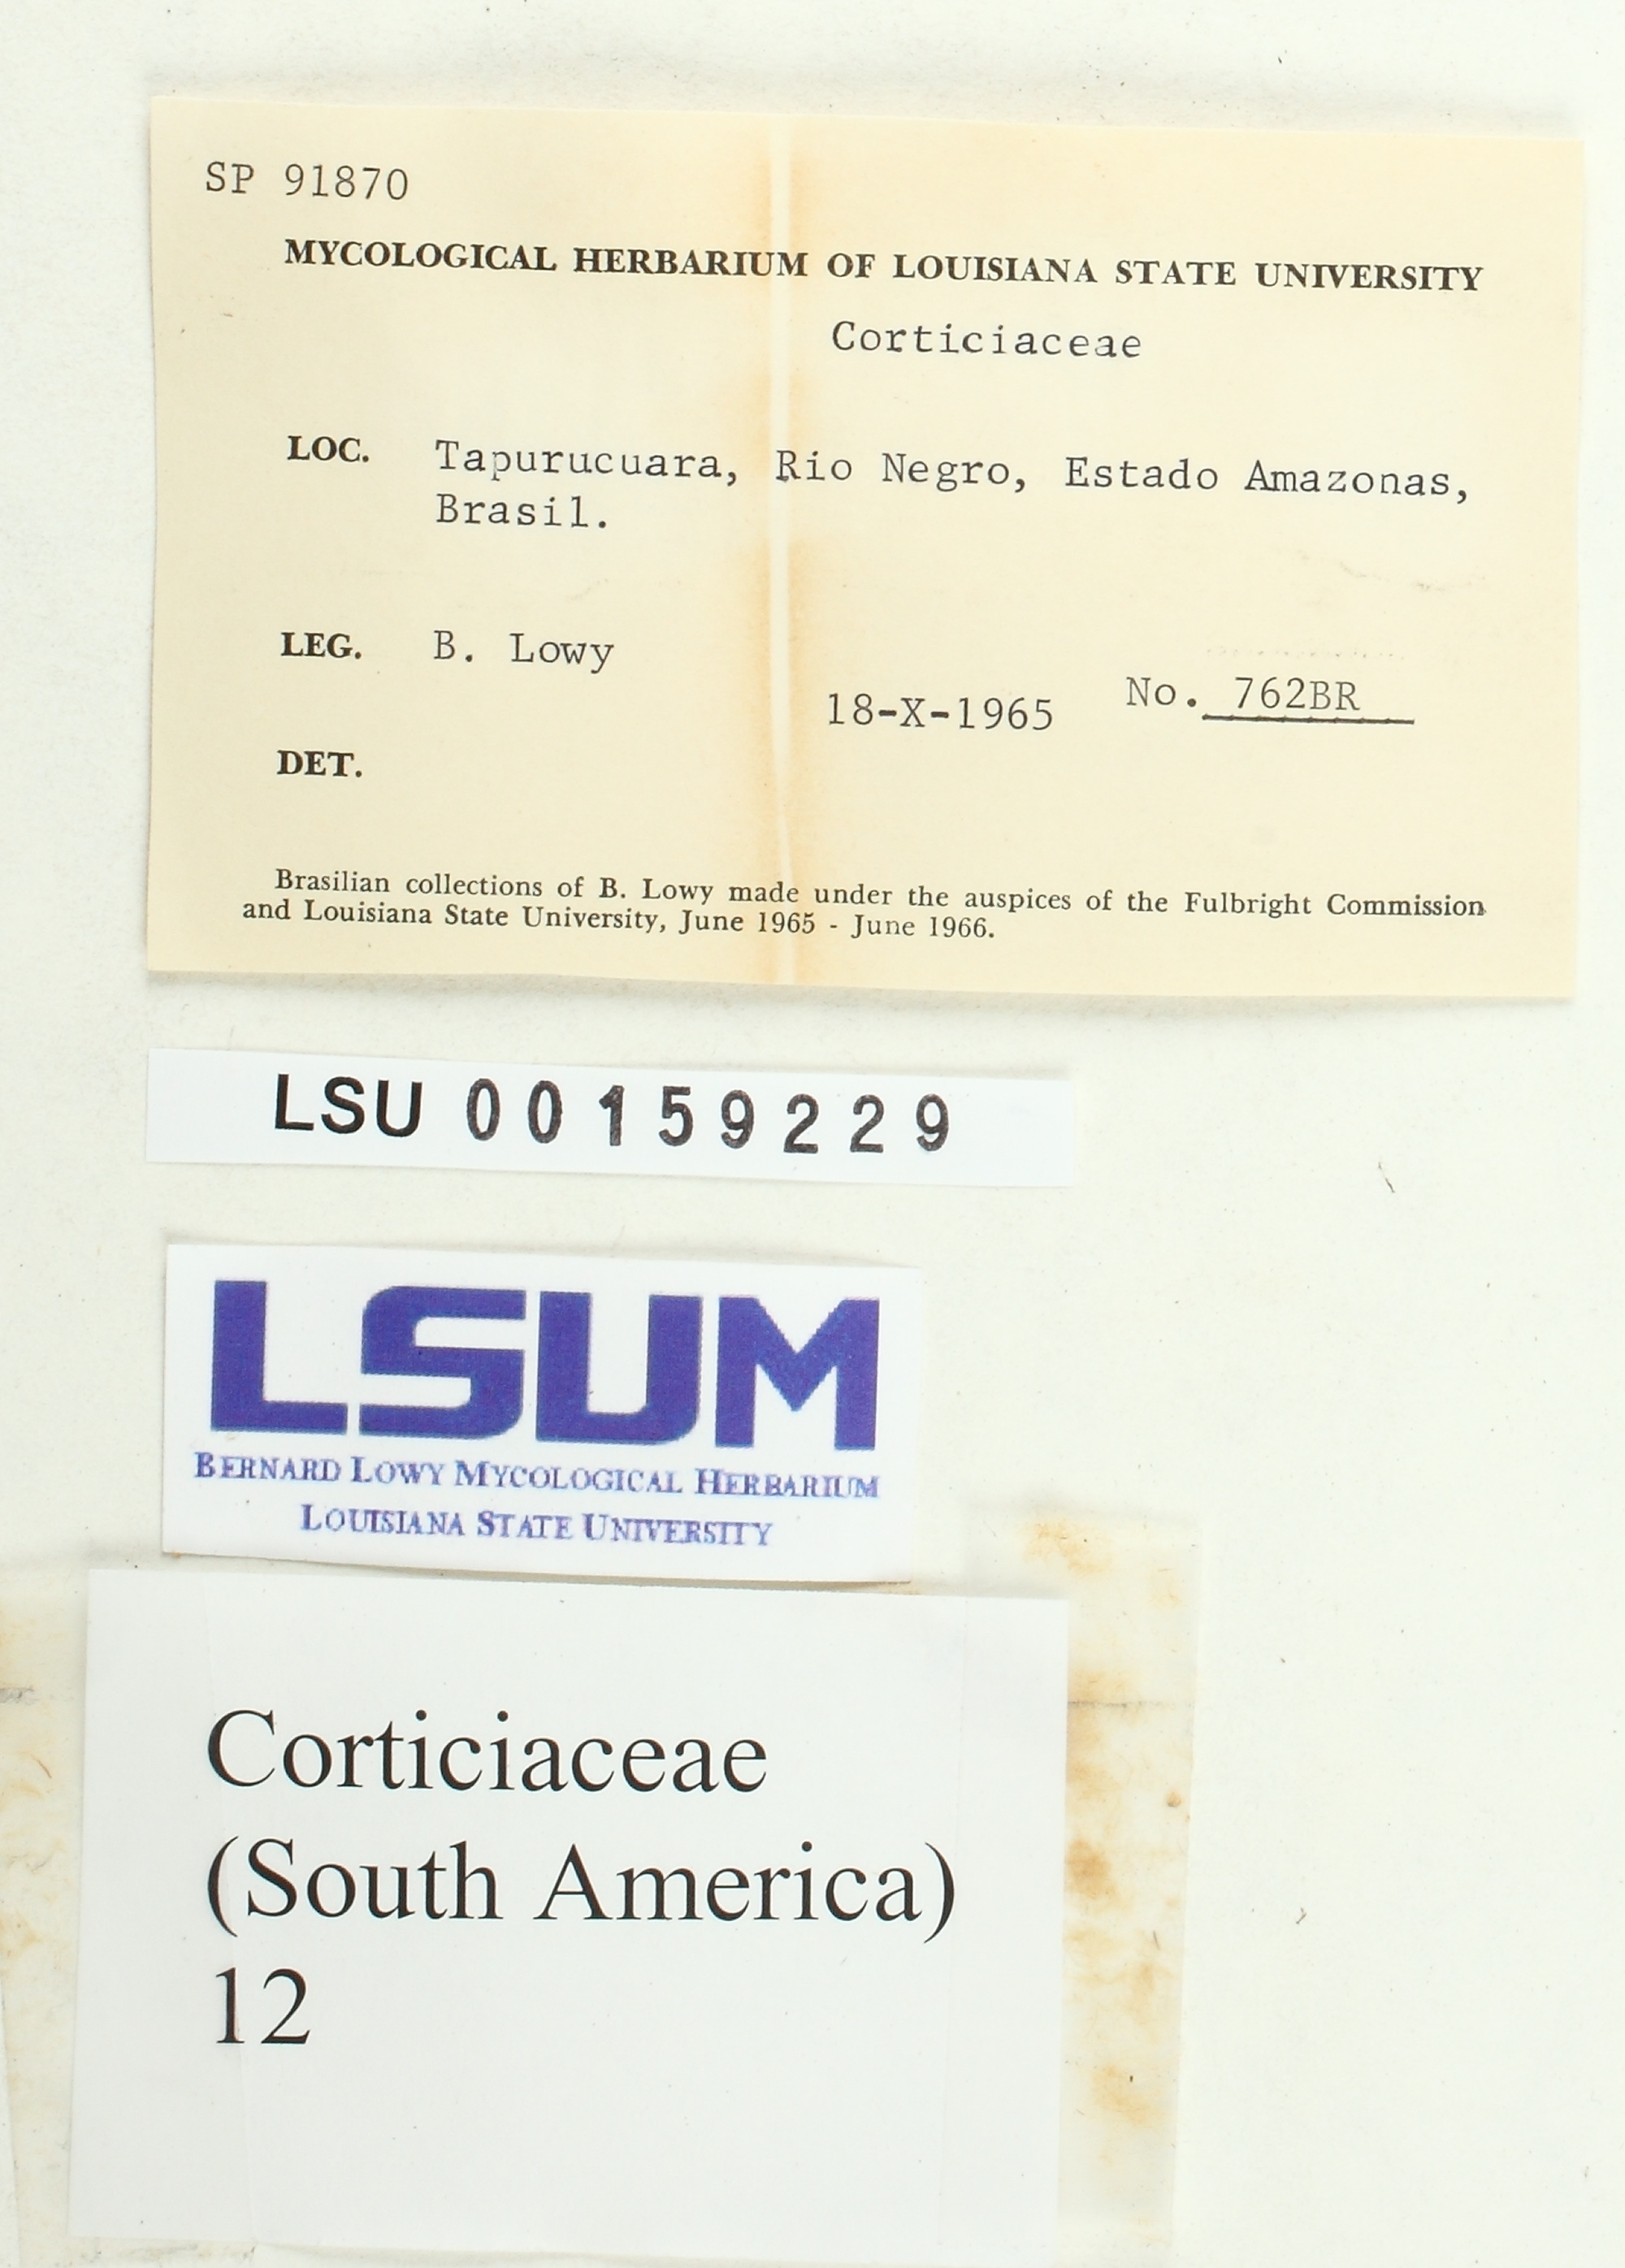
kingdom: Fungi
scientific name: Fungi
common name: Fungi
